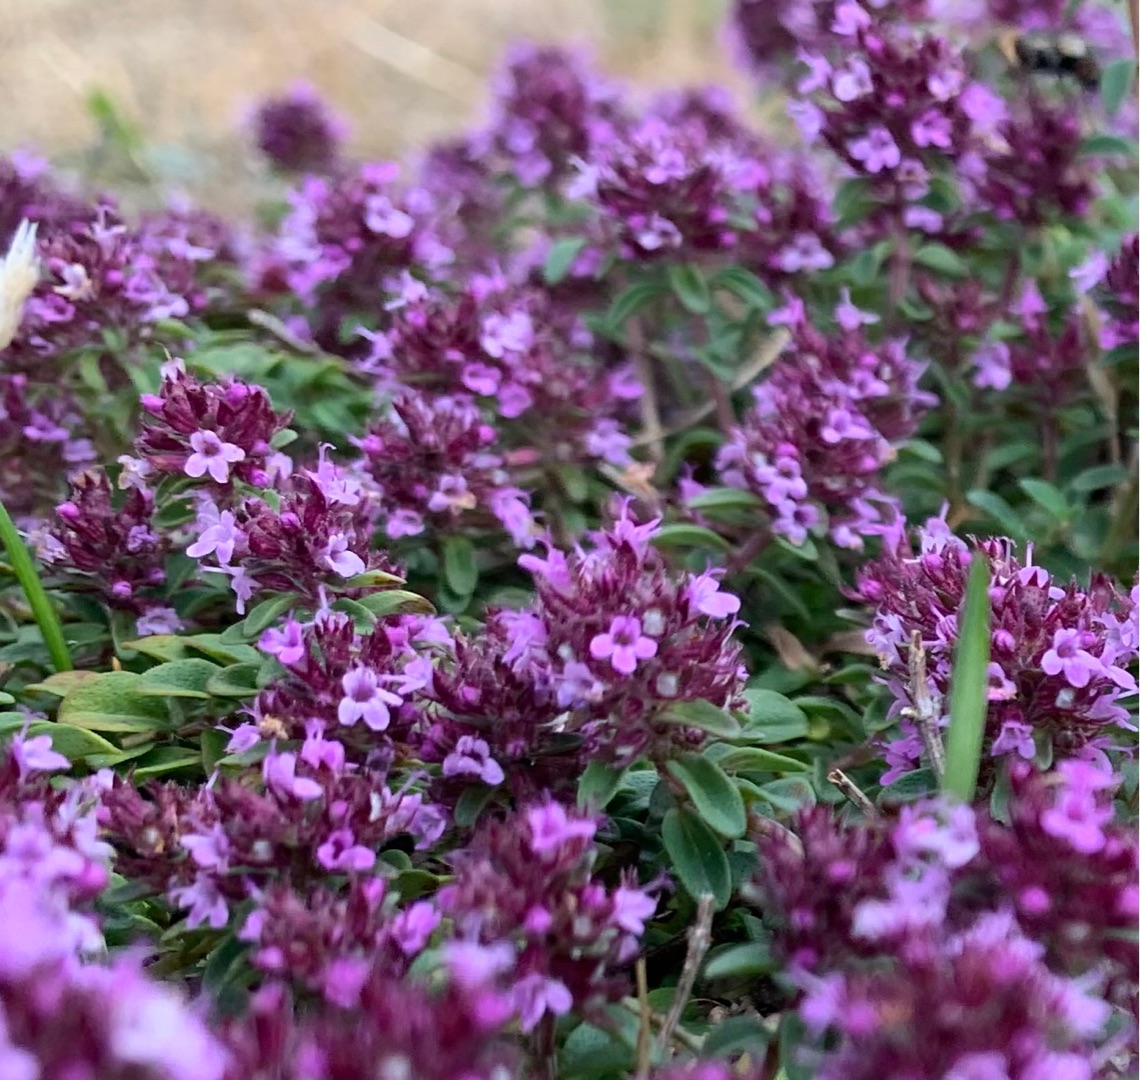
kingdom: Plantae
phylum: Tracheophyta
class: Magnoliopsida
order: Lamiales
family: Lamiaceae
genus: Thymus
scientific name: Thymus pulegioides
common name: Bredbladet timian
